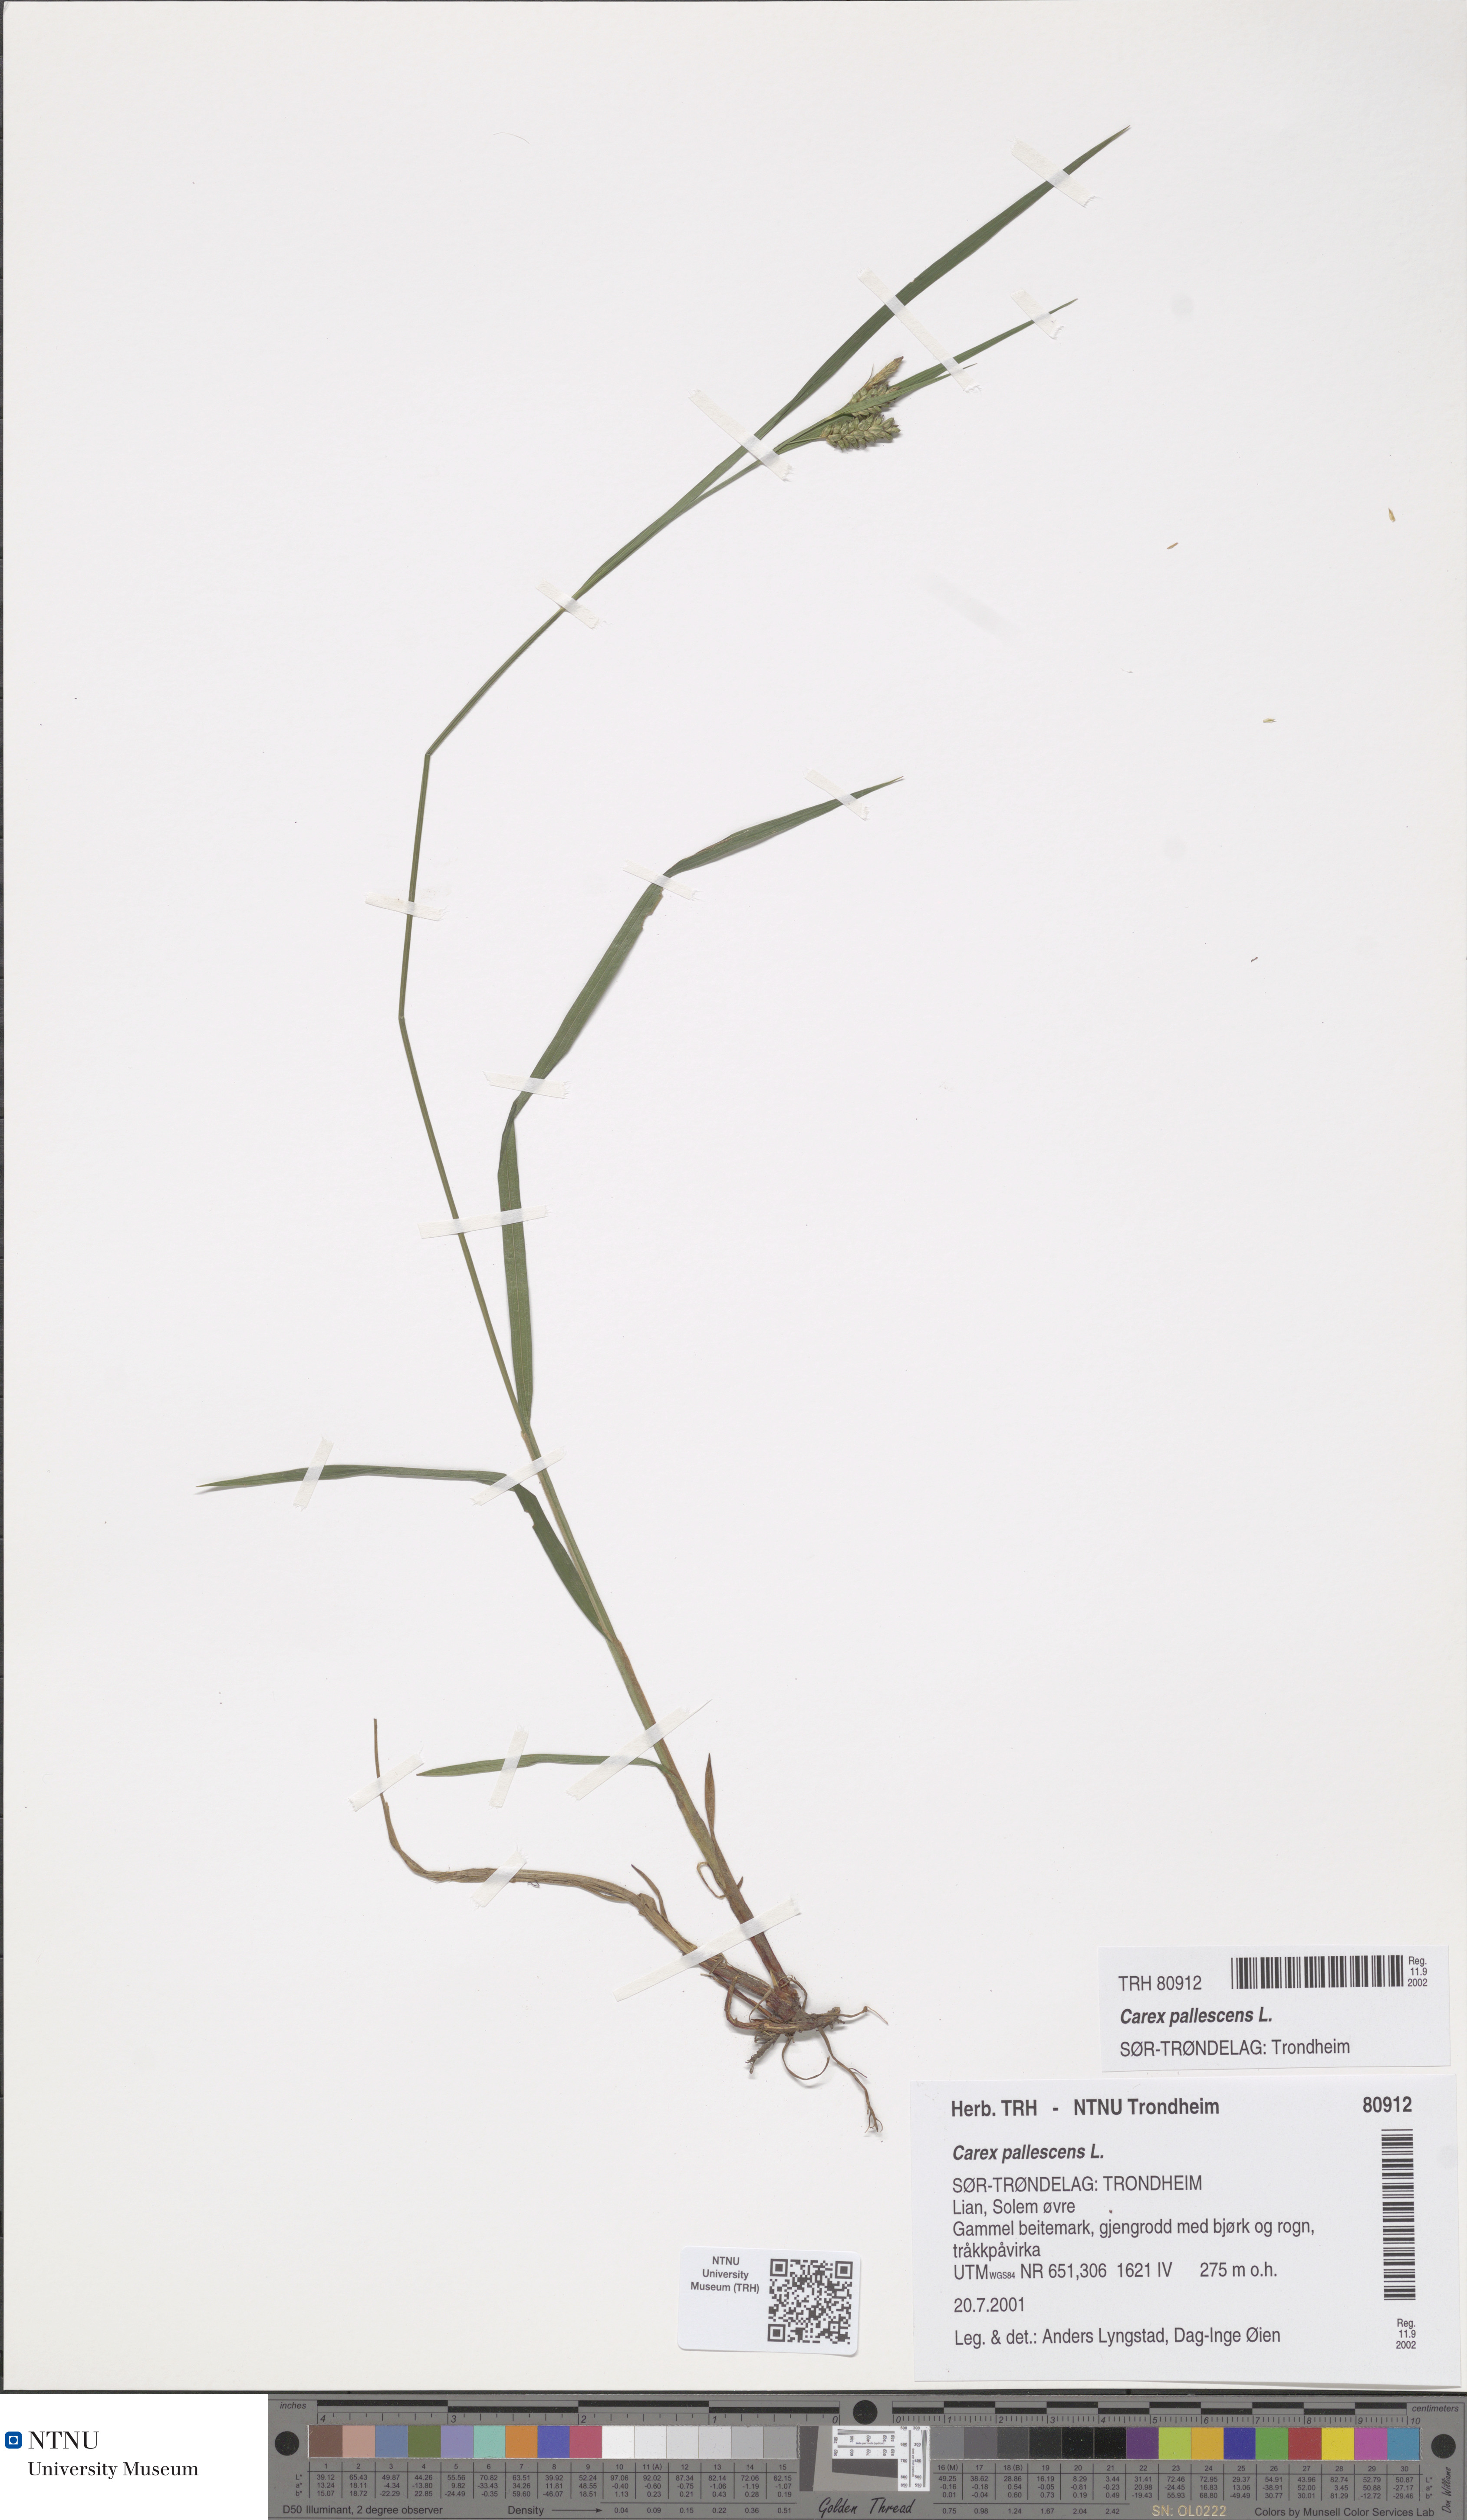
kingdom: Plantae
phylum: Tracheophyta
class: Liliopsida
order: Poales
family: Cyperaceae
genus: Carex
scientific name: Carex pallescens
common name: Pale sedge
